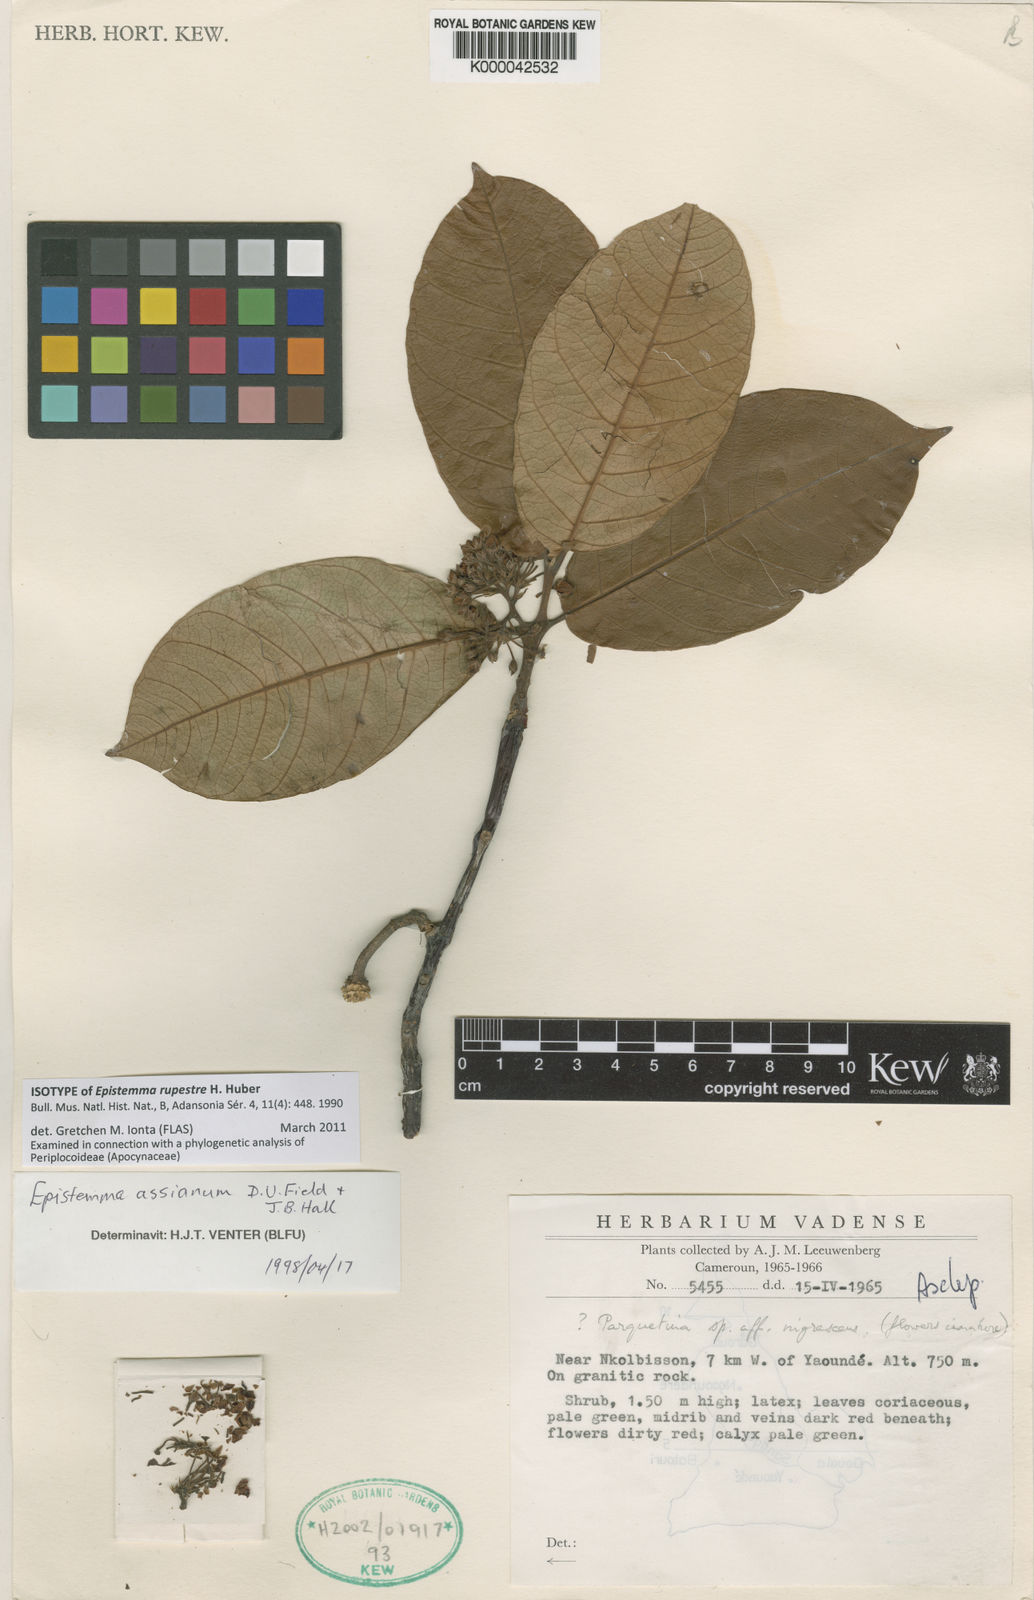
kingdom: Plantae
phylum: Tracheophyta
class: Magnoliopsida
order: Gentianales
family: Apocynaceae
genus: Epistemma
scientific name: Epistemma assianum
